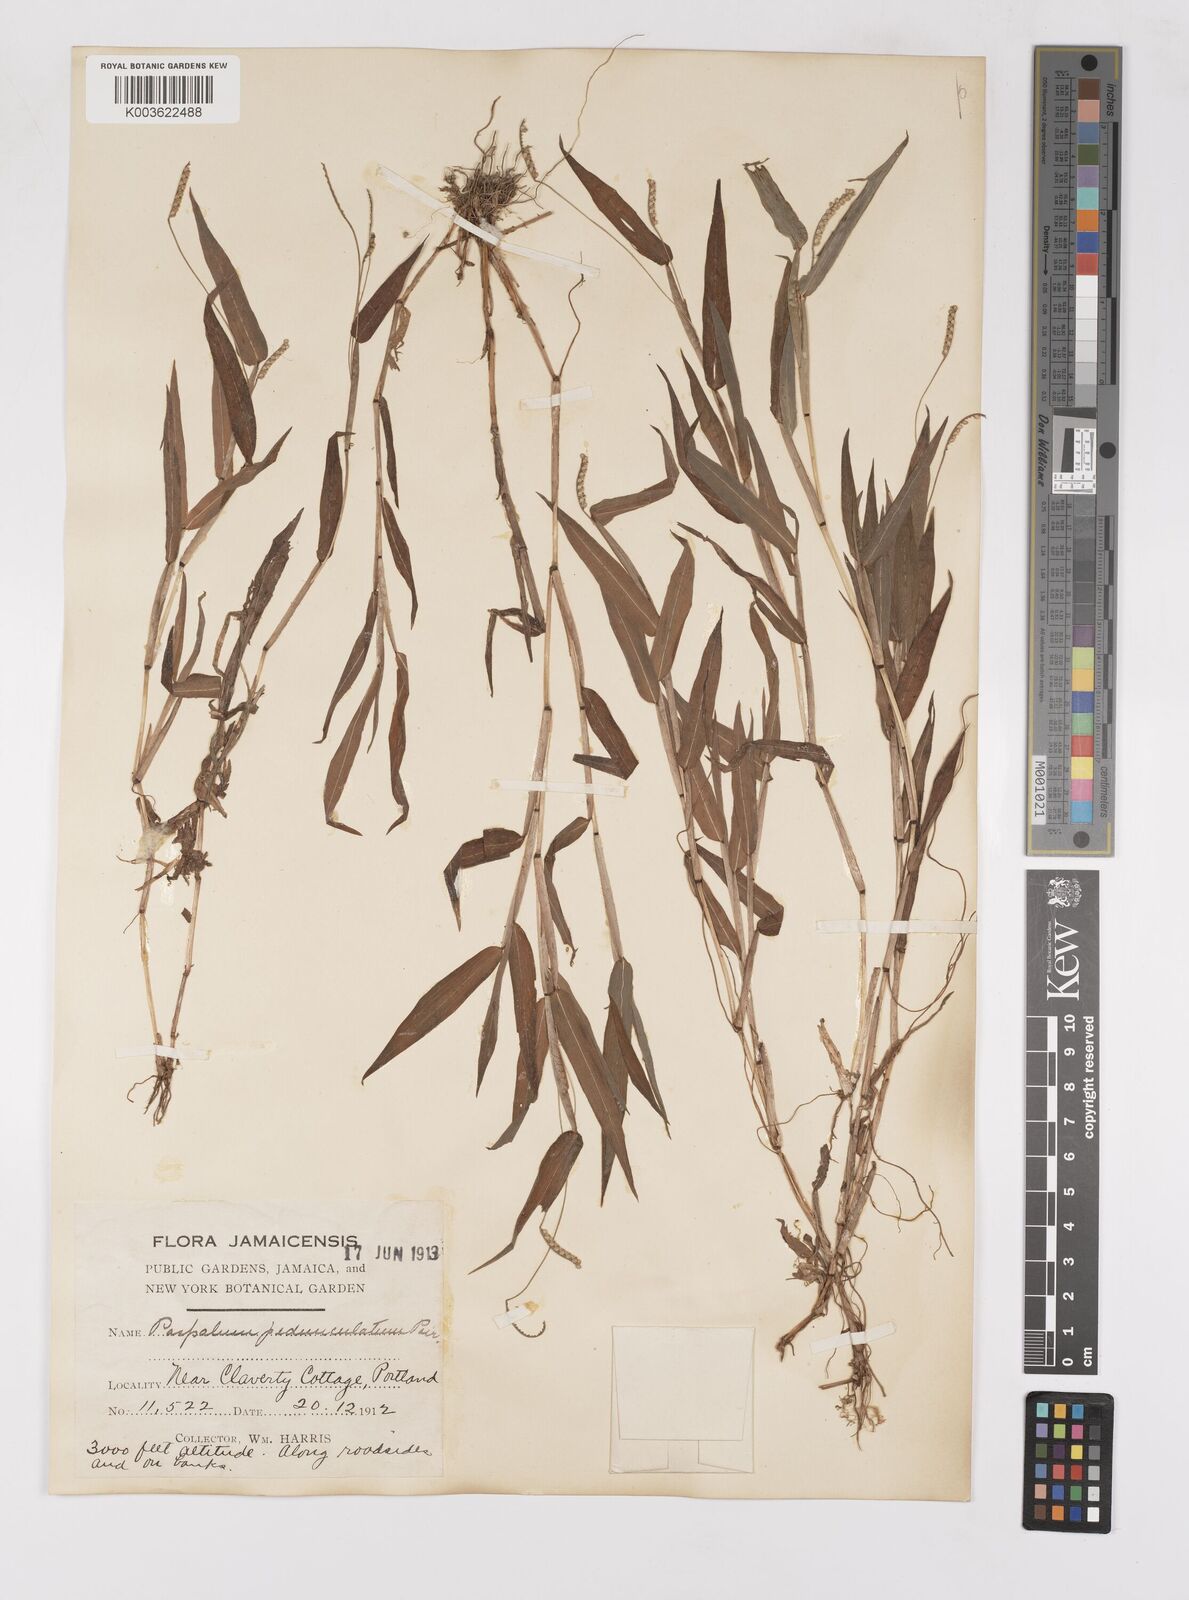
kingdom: Plantae
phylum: Tracheophyta
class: Liliopsida
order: Poales
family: Poaceae
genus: Paspalum
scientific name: Paspalum decumbens
